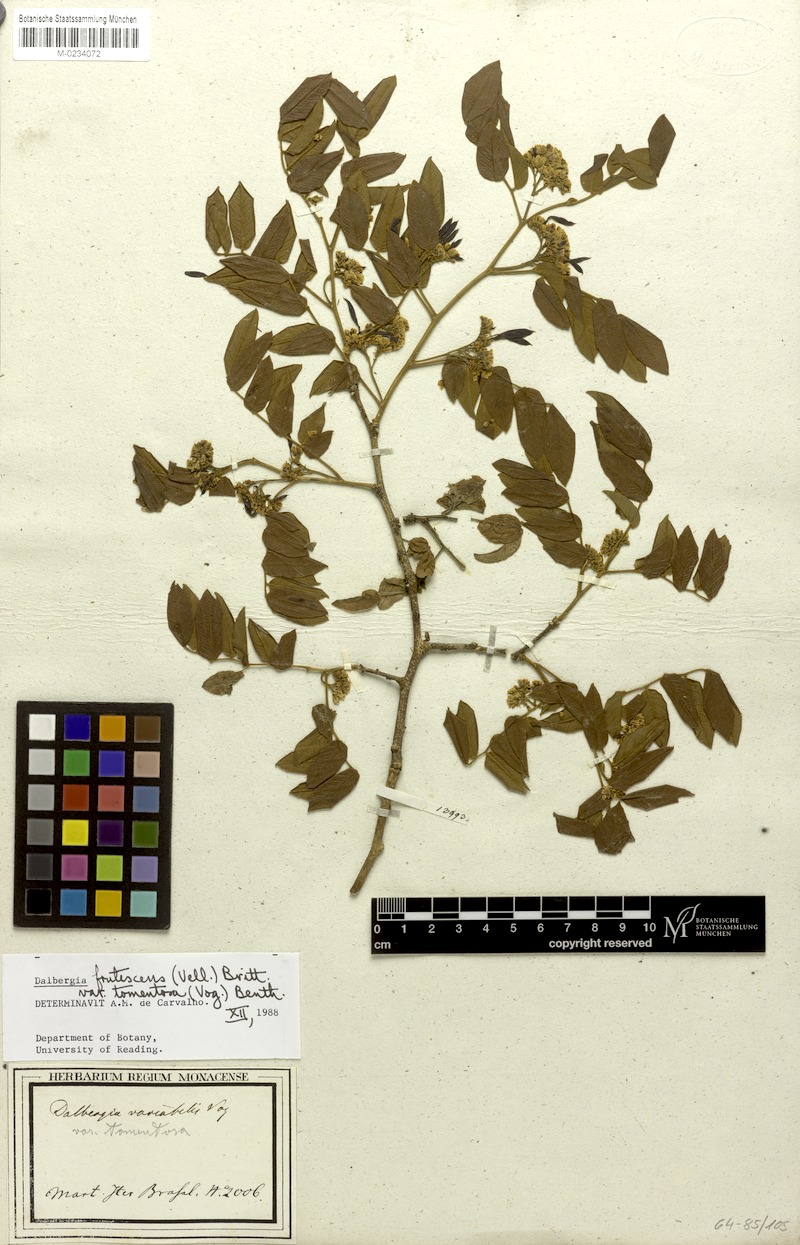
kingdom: Plantae
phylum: Tracheophyta
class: Magnoliopsida
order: Fabales
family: Fabaceae
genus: Dalbergia
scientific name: Dalbergia frutescens
